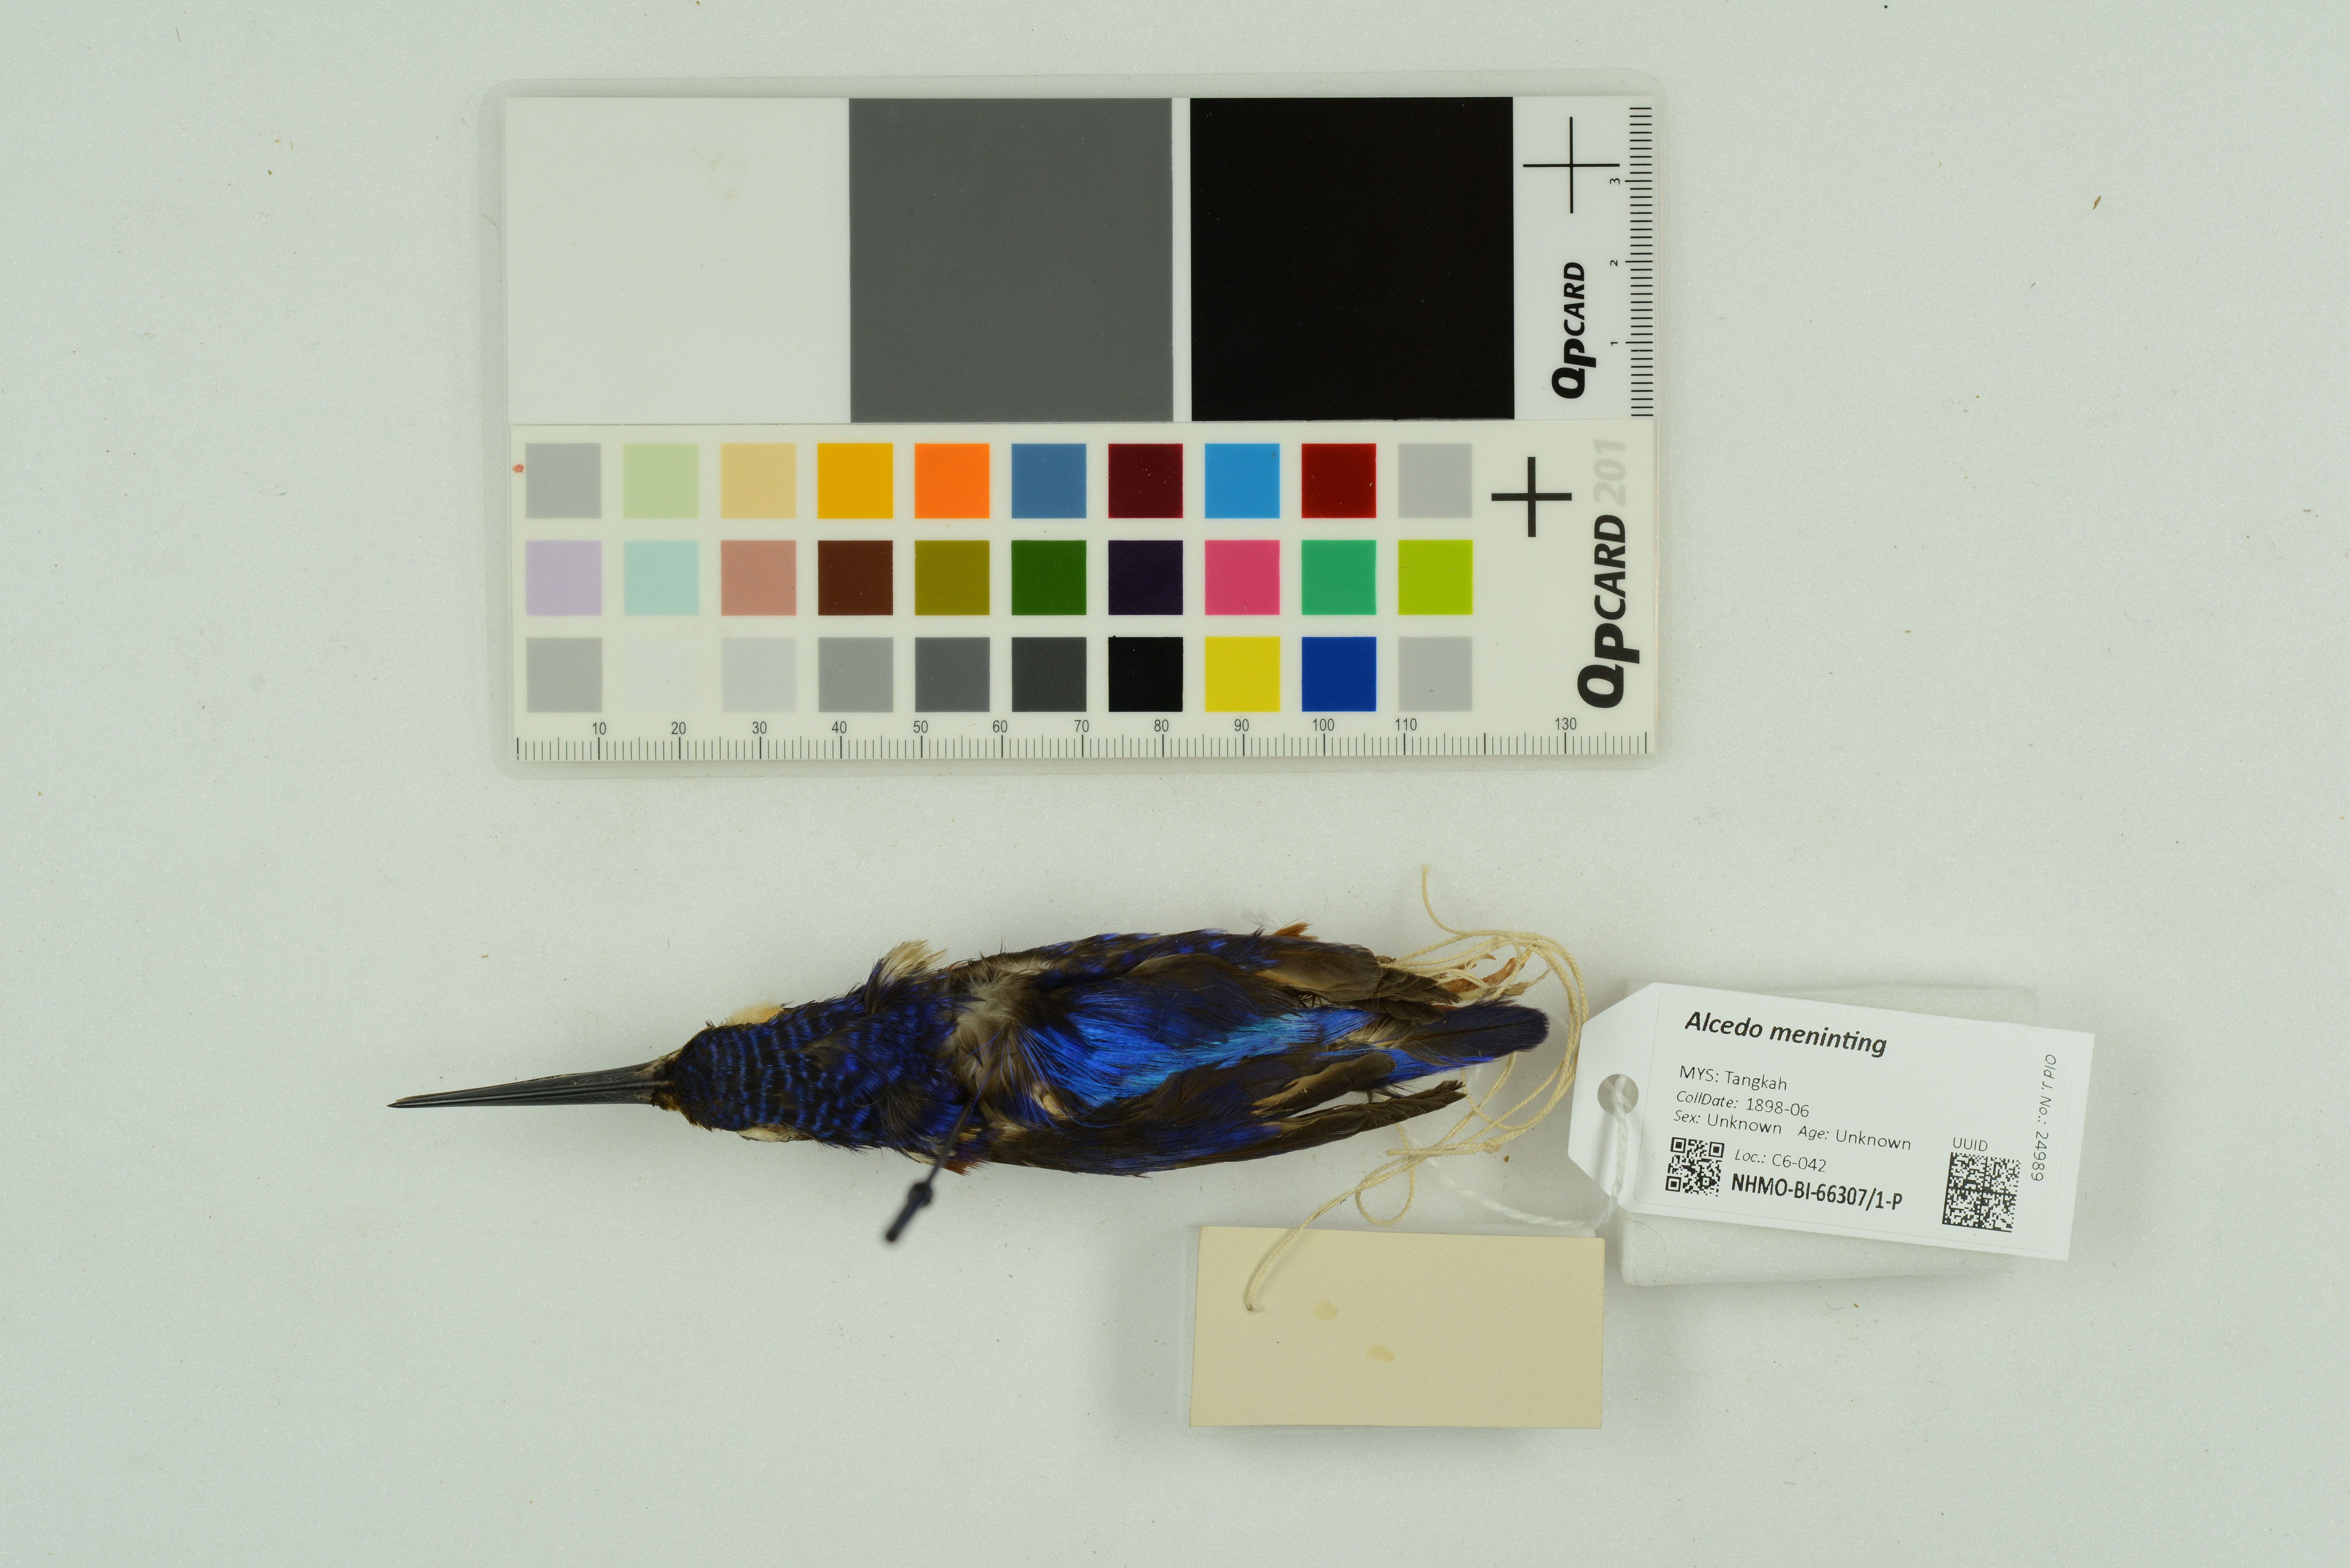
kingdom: Animalia
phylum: Chordata
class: Aves
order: Coraciiformes
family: Alcedinidae
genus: Alcedo
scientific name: Alcedo meninting
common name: Blue-eared kingfisher
